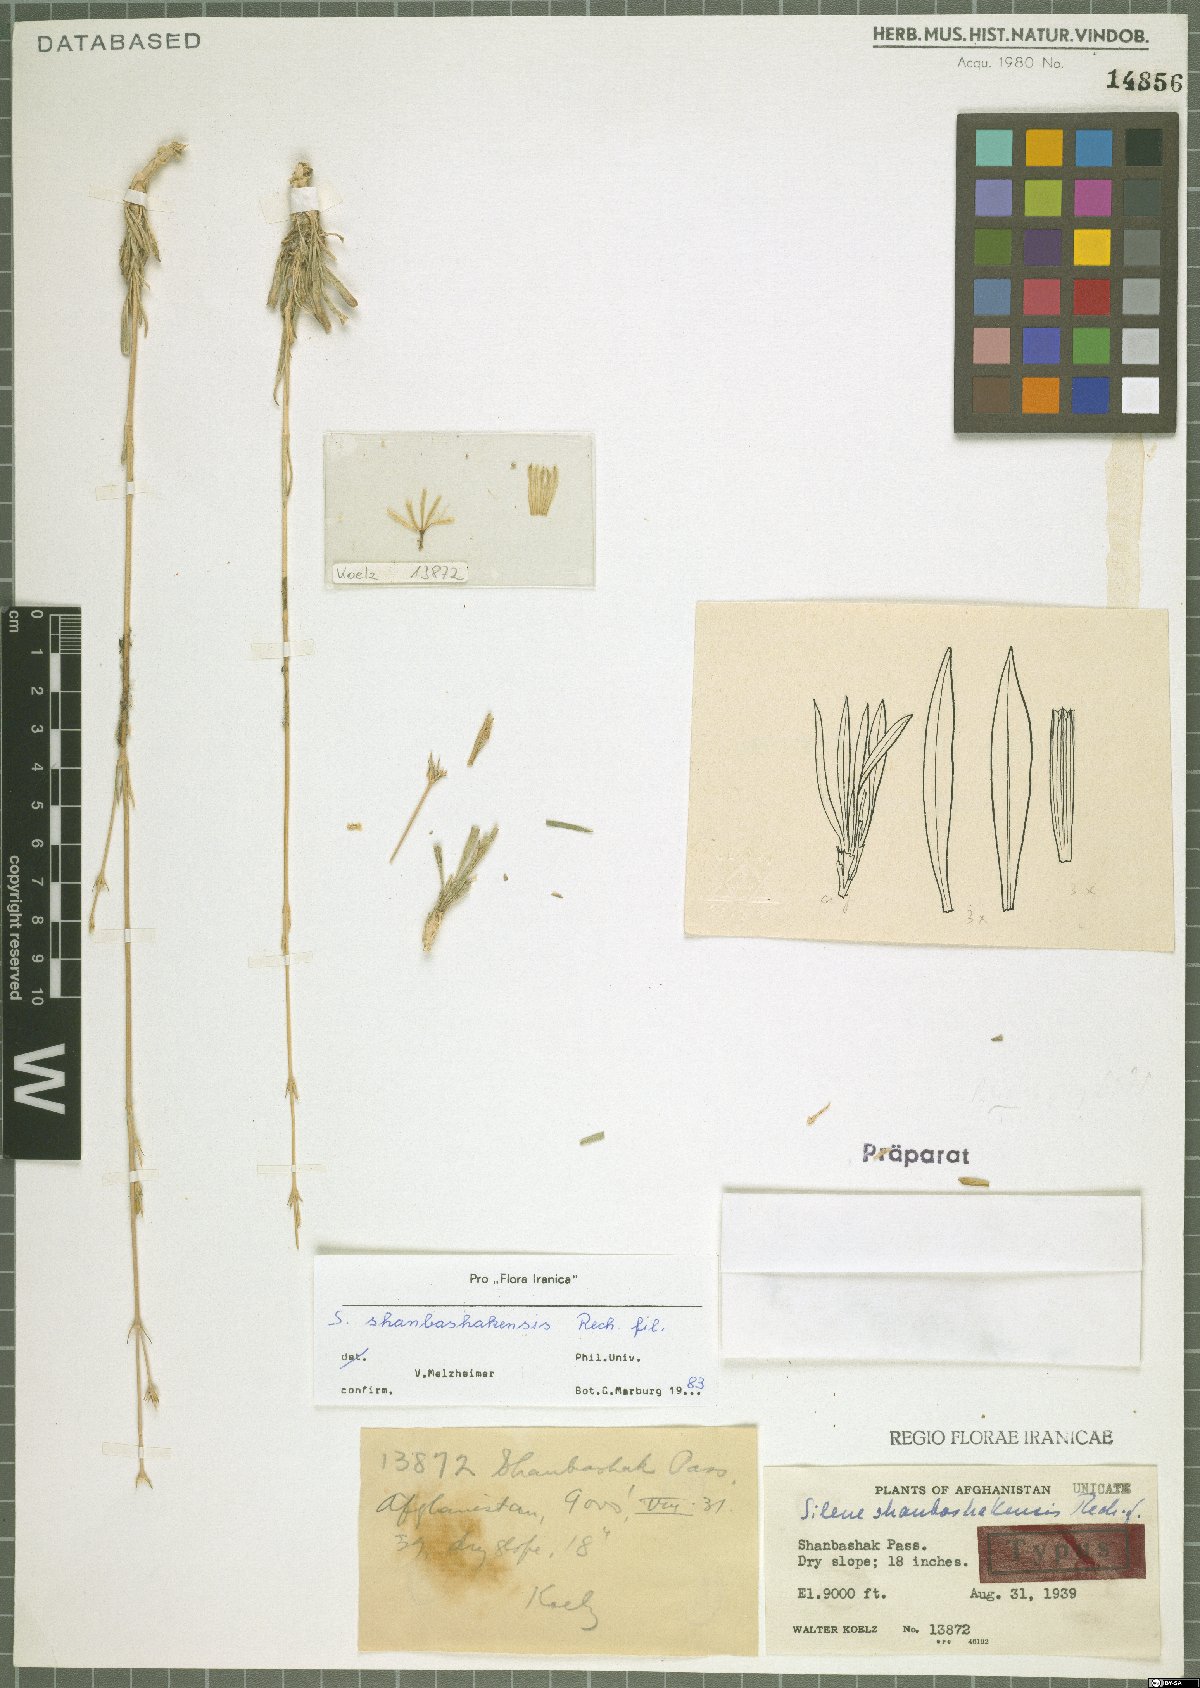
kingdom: Plantae
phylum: Tracheophyta
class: Magnoliopsida
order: Caryophyllales
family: Caryophyllaceae
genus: Silene
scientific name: Silene shanbashakensis
